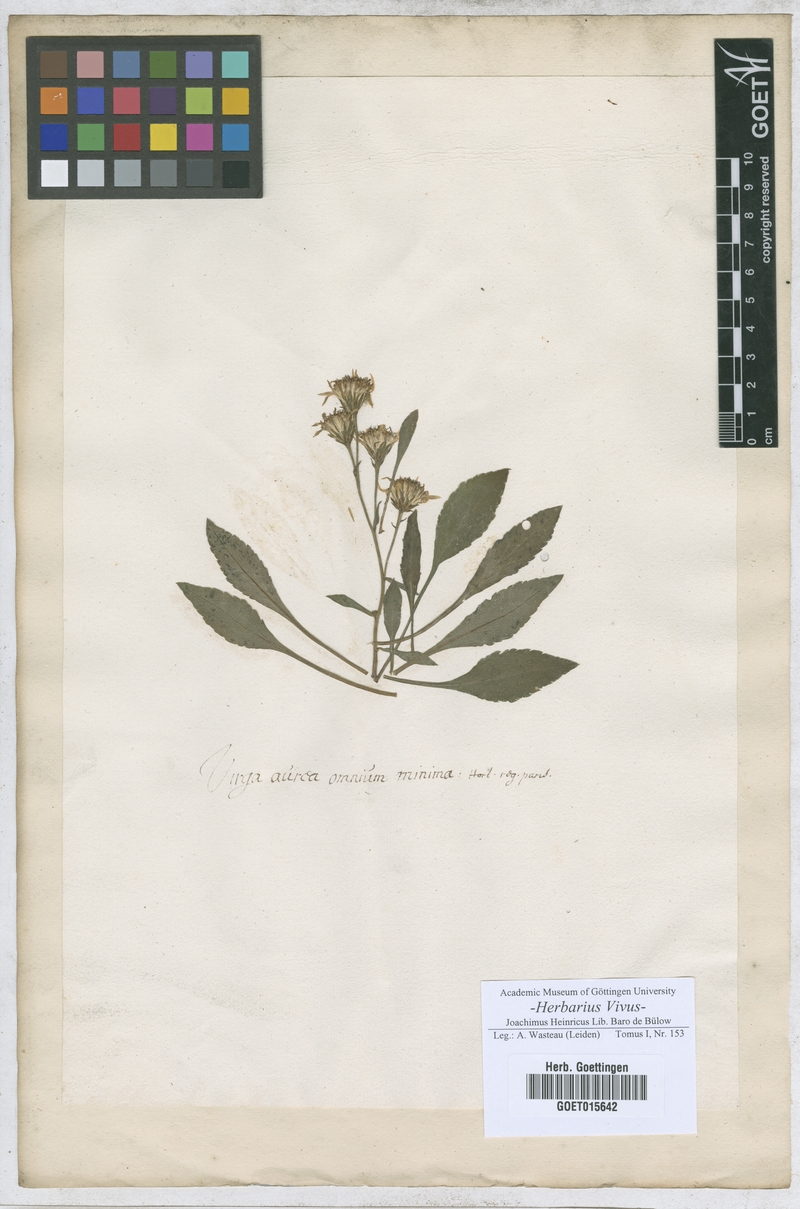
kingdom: Animalia
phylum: Arthropoda
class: Insecta
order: Lepidoptera
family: Hesperiidae
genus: Virga
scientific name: Virga
